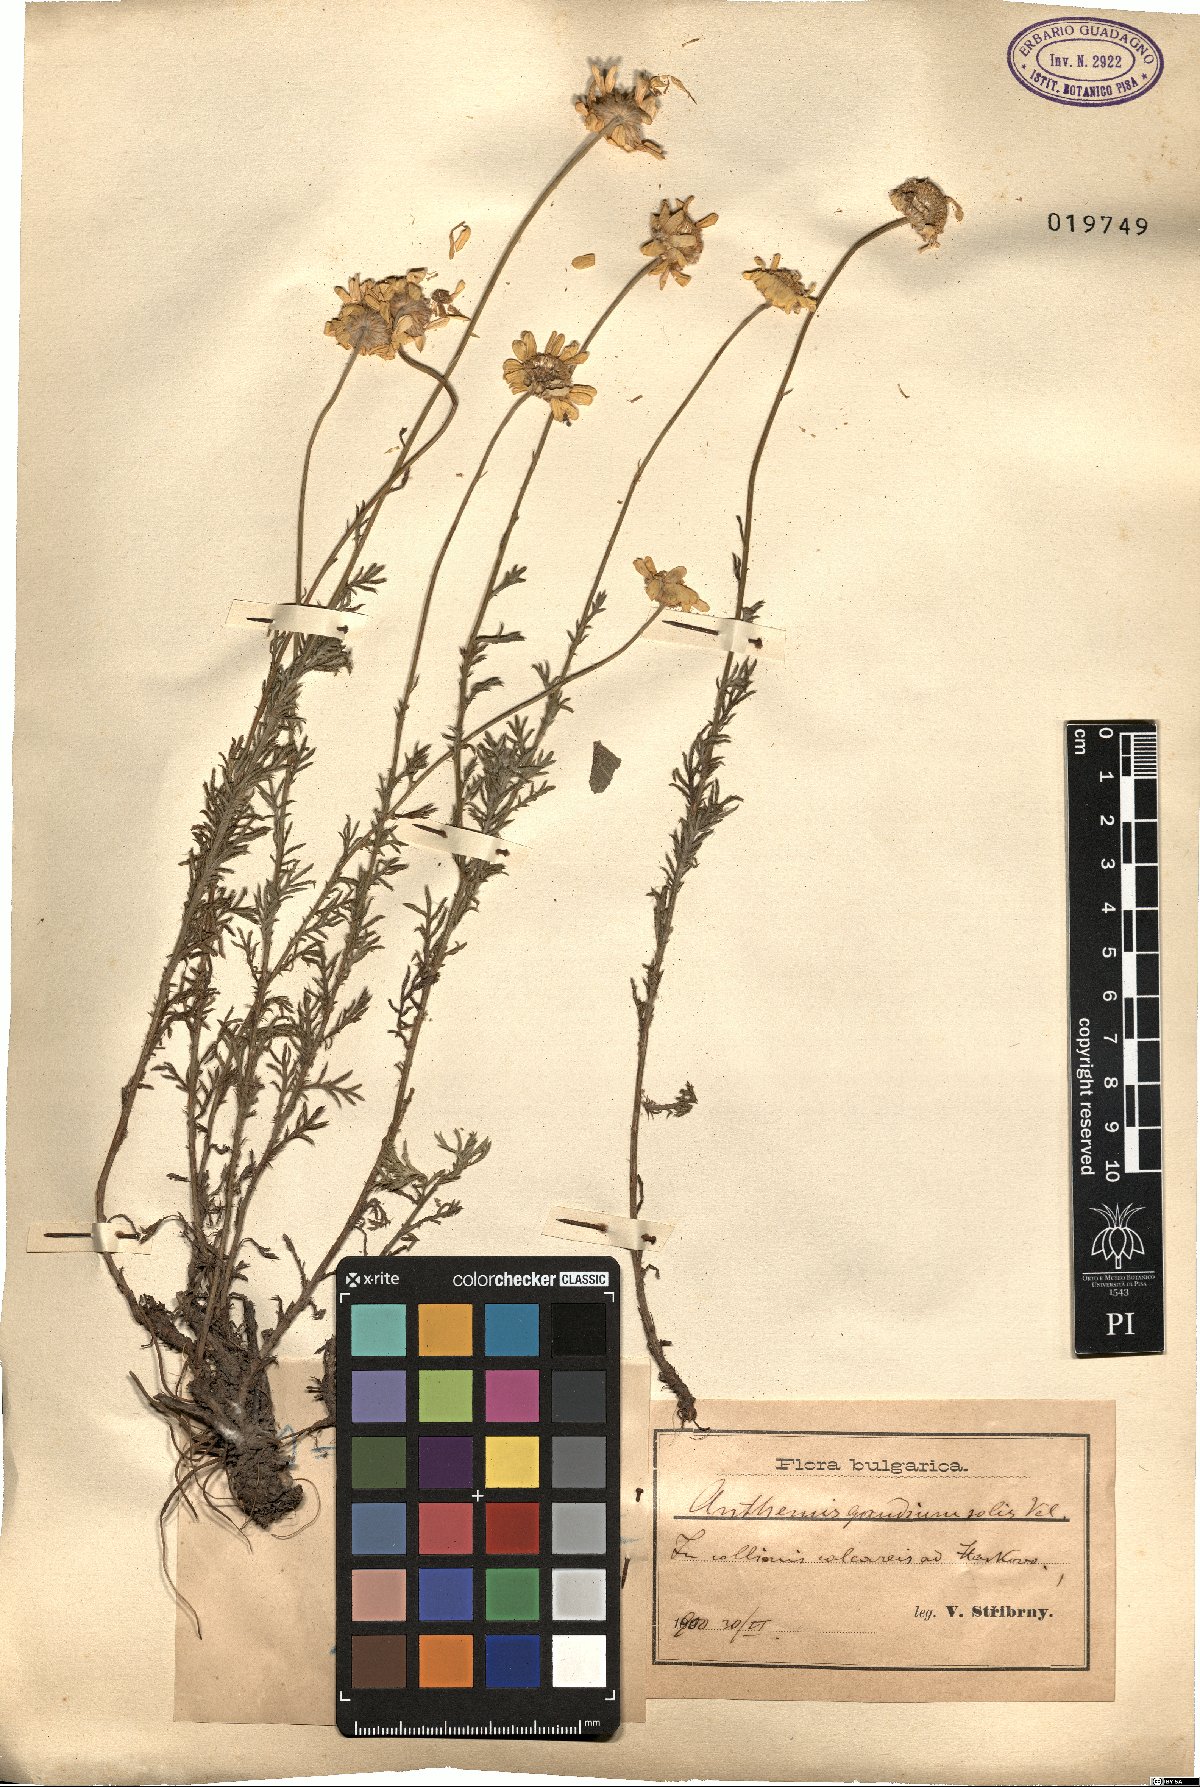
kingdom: Plantae
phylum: Tracheophyta
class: Magnoliopsida
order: Asterales
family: Asteraceae
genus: Cota
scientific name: Cota tinctoria
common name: Golden chamomile
